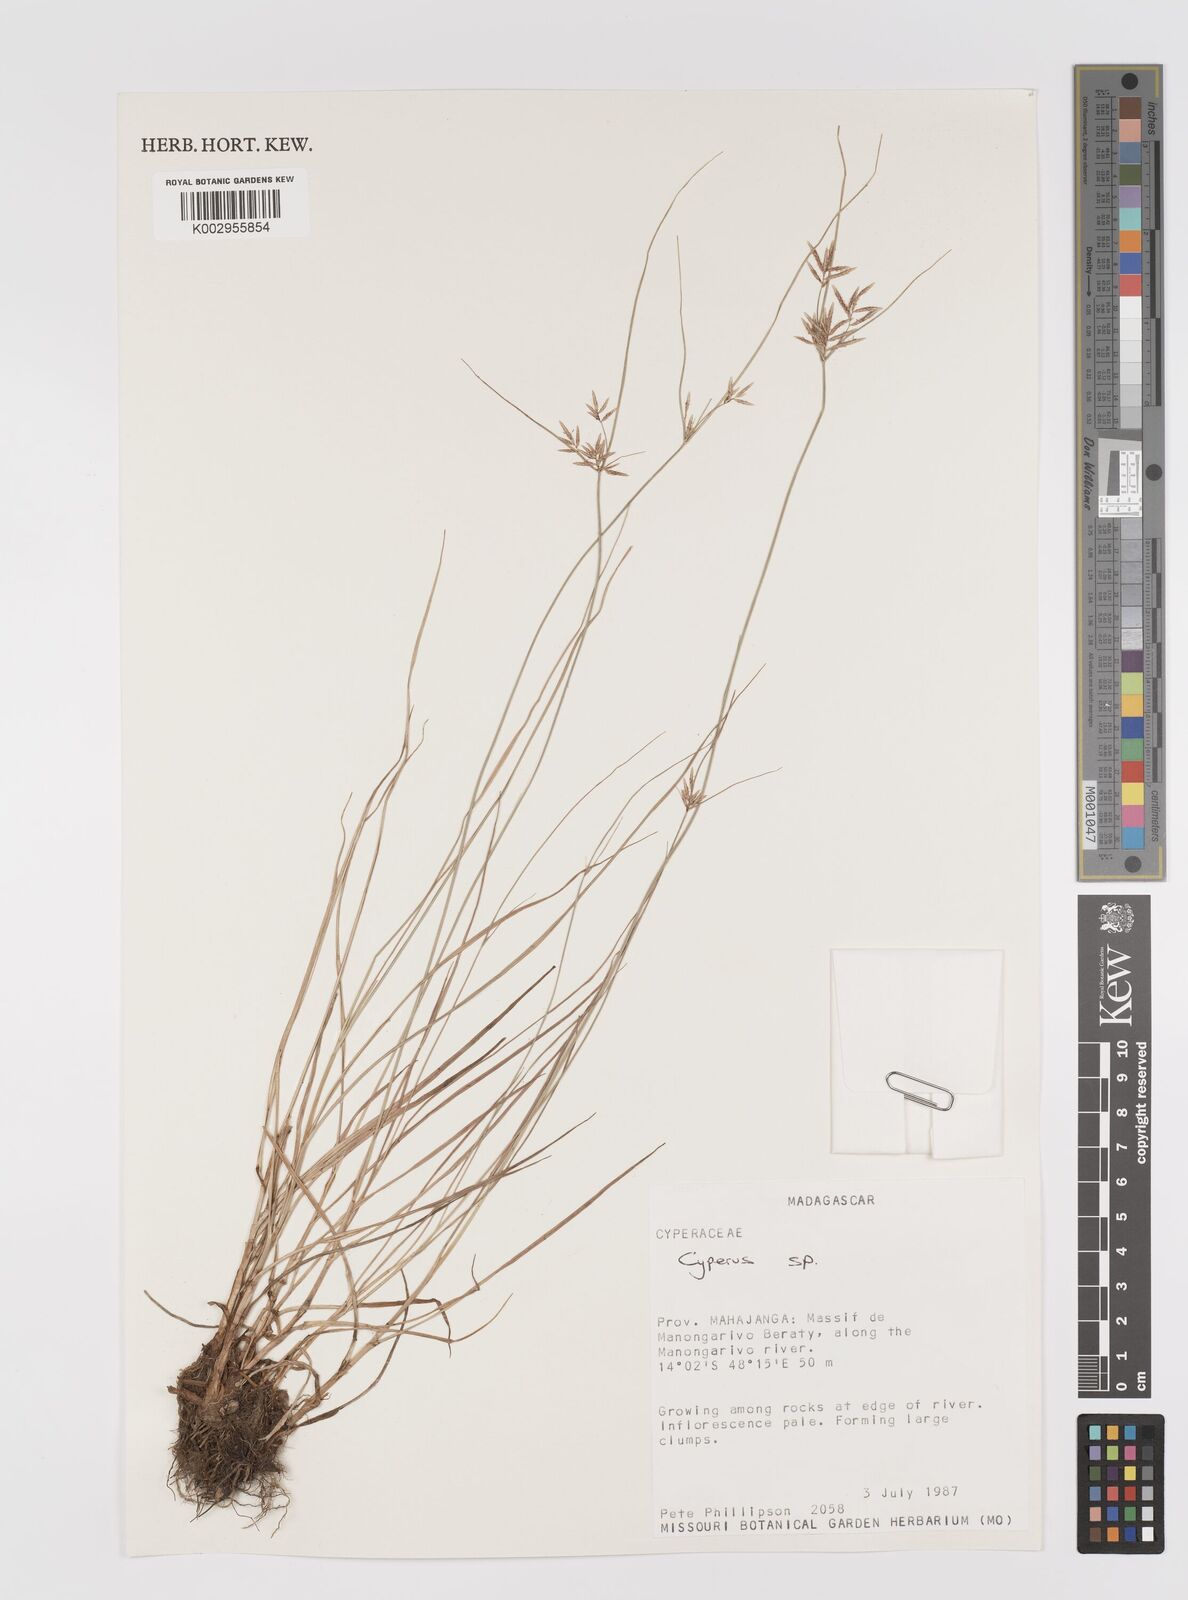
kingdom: Plantae
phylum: Tracheophyta
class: Liliopsida
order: Poales
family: Cyperaceae
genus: Cyperus
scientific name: Cyperus
